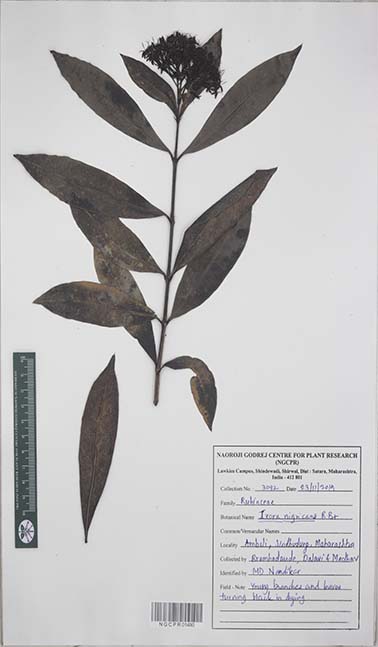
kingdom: Plantae
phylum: Tracheophyta
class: Magnoliopsida
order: Gentianales
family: Rubiaceae
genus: Ixora
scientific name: Ixora nigricans
